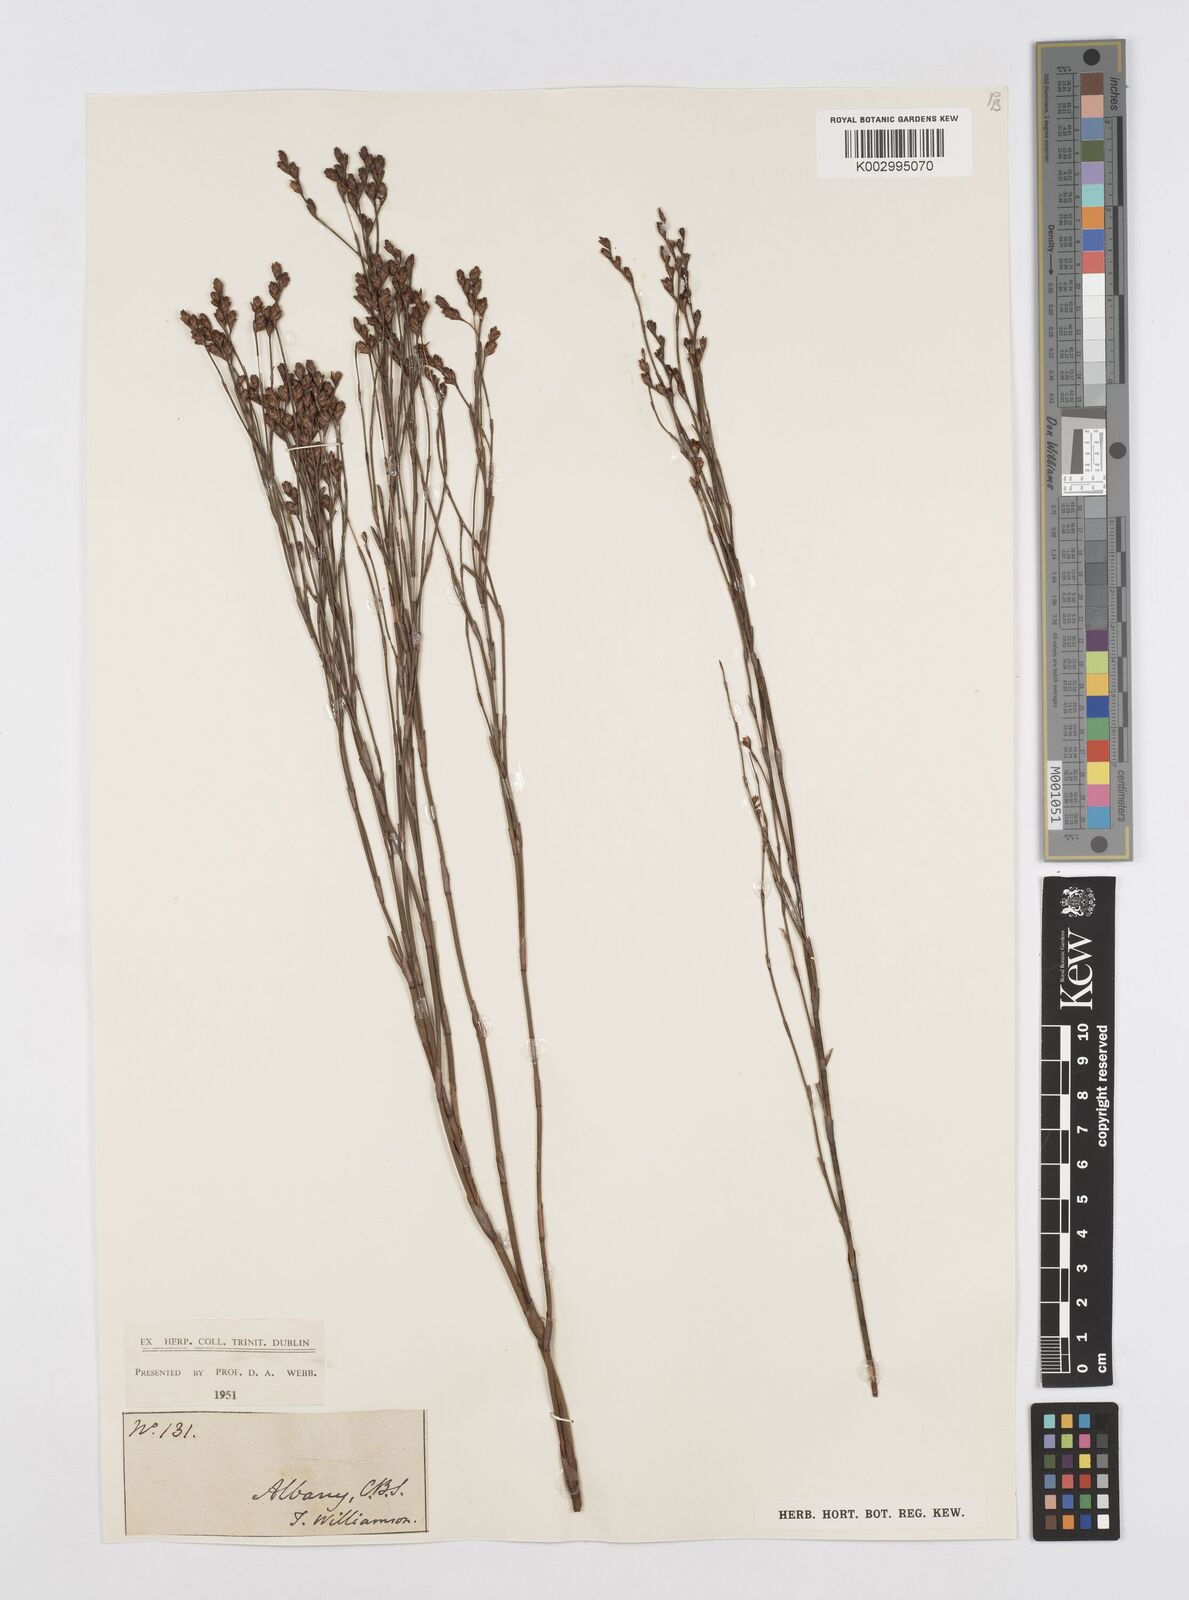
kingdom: Plantae
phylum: Tracheophyta
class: Liliopsida
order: Poales
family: Restionaceae
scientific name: Restionaceae
